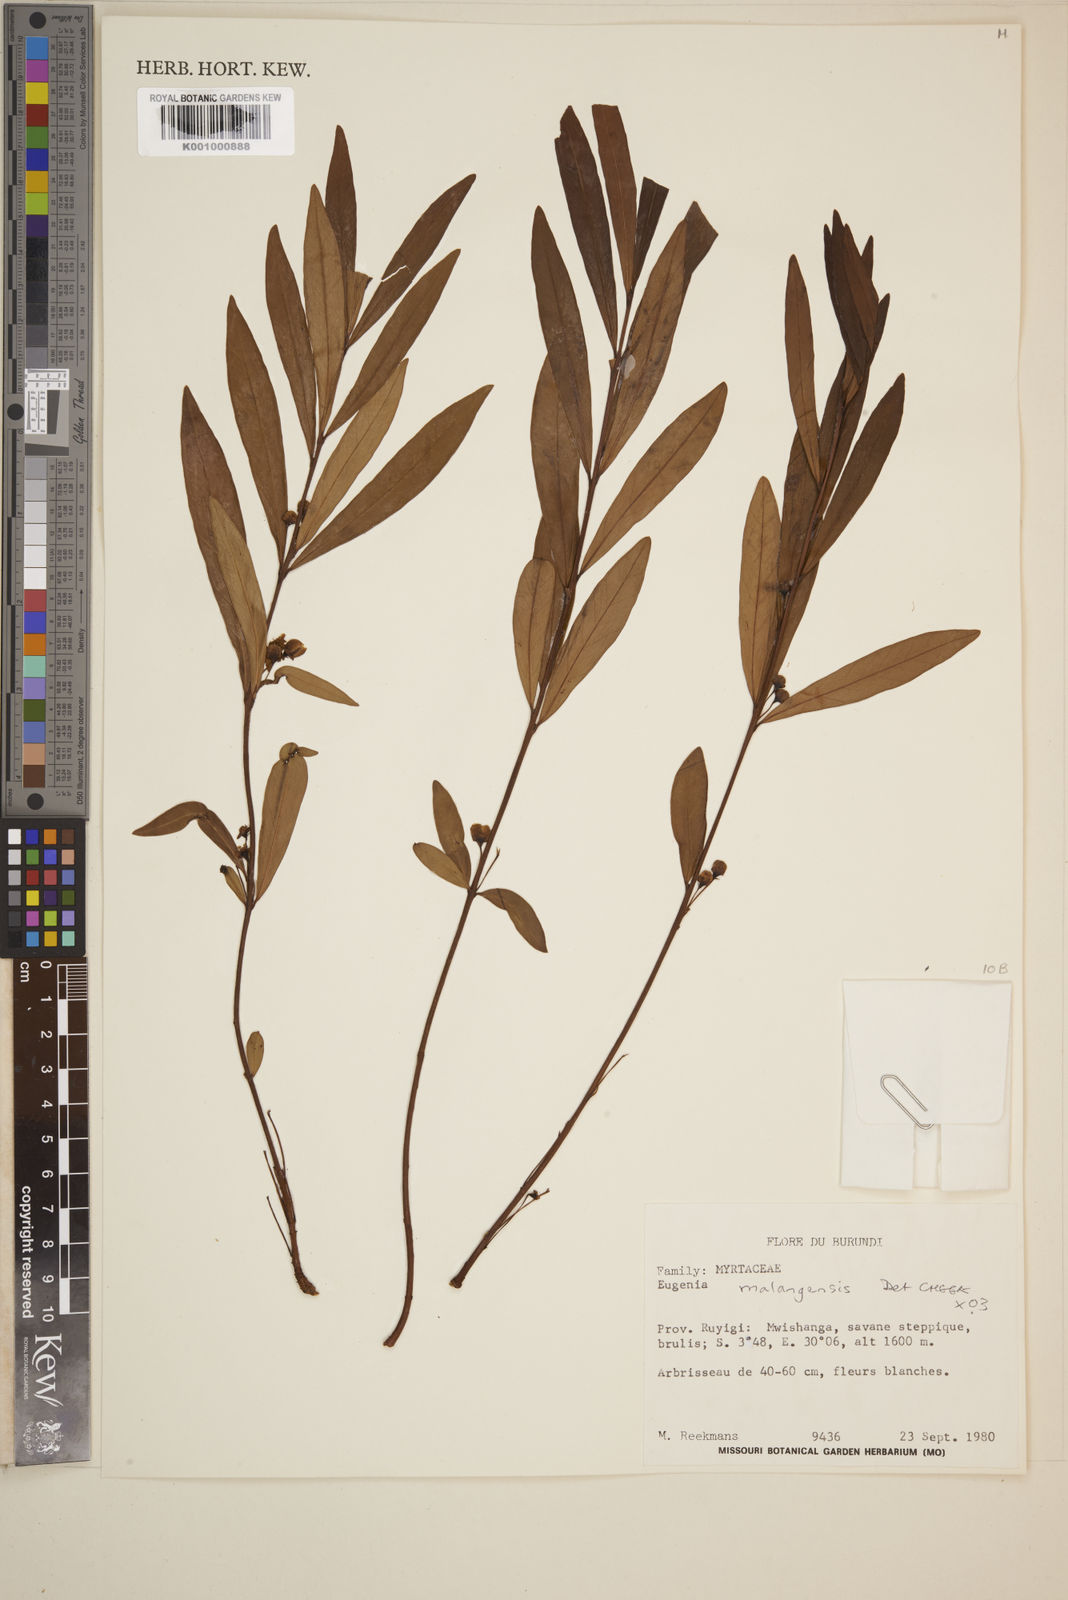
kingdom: Plantae
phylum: Tracheophyta
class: Magnoliopsida
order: Myrtales
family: Myrtaceae
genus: Eugenia
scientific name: Eugenia malangensis
